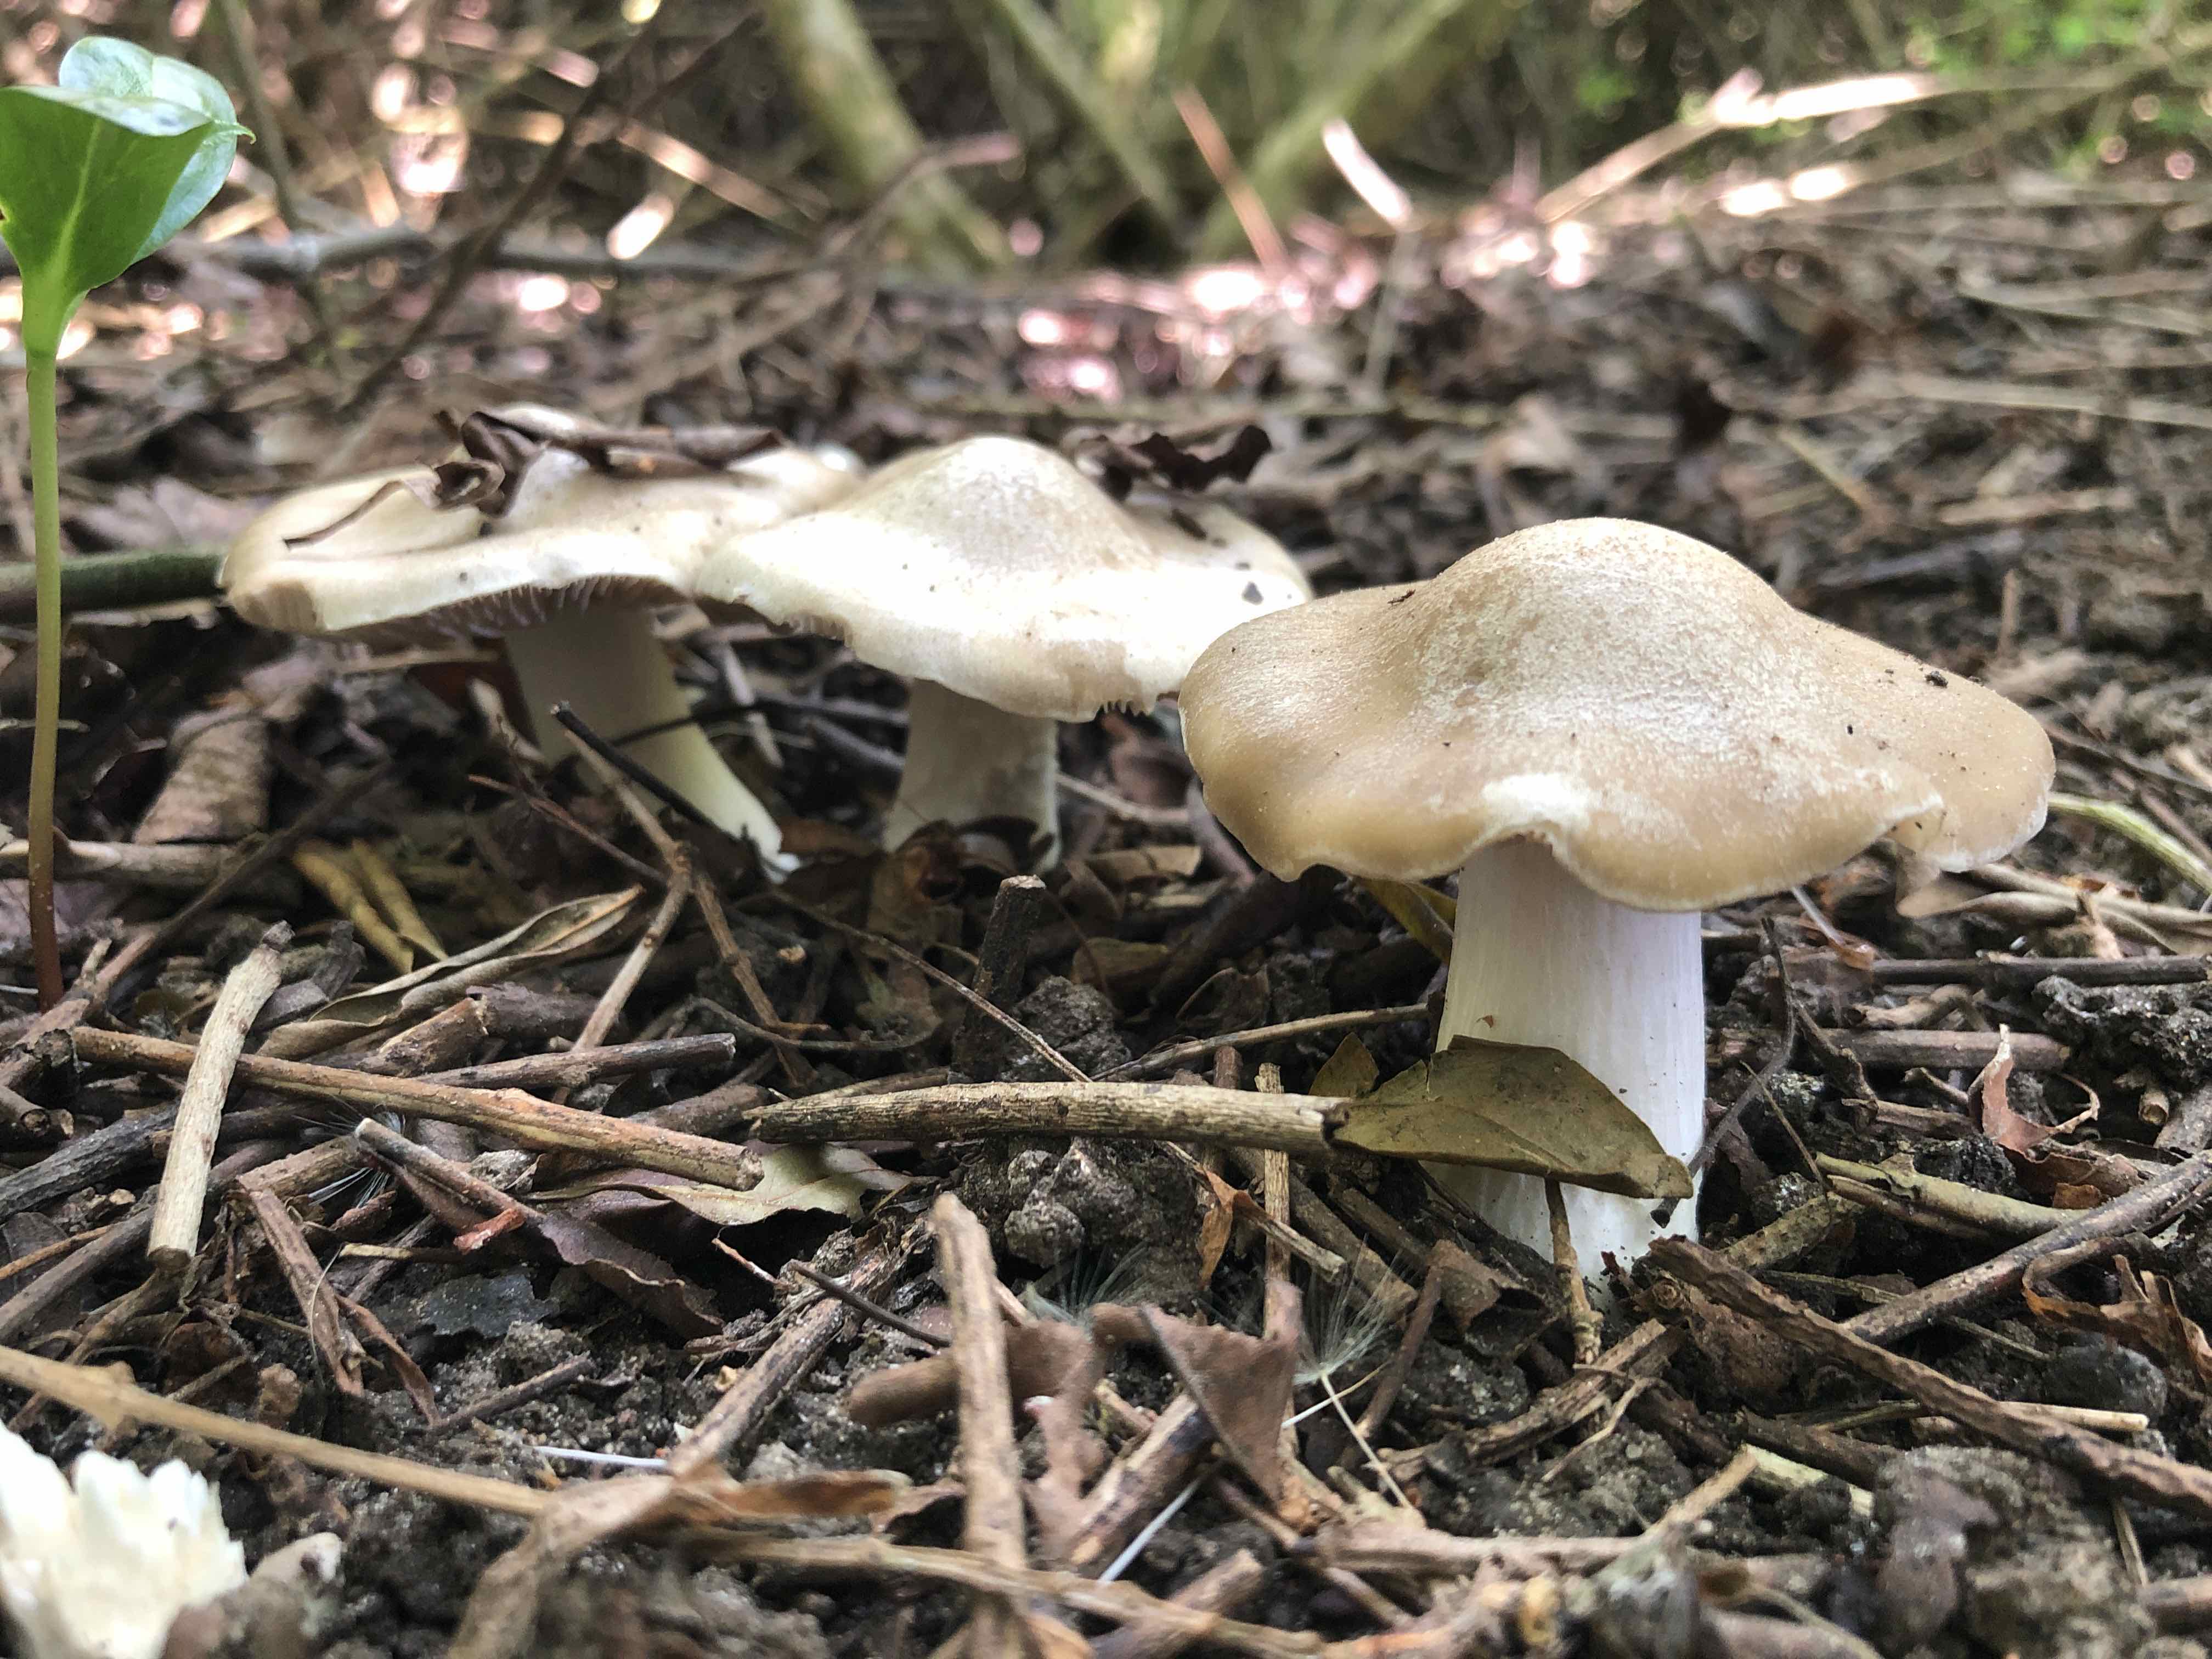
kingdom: Fungi
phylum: Basidiomycota
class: Agaricomycetes
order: Agaricales
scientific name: Agaricales
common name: champignonordenen
